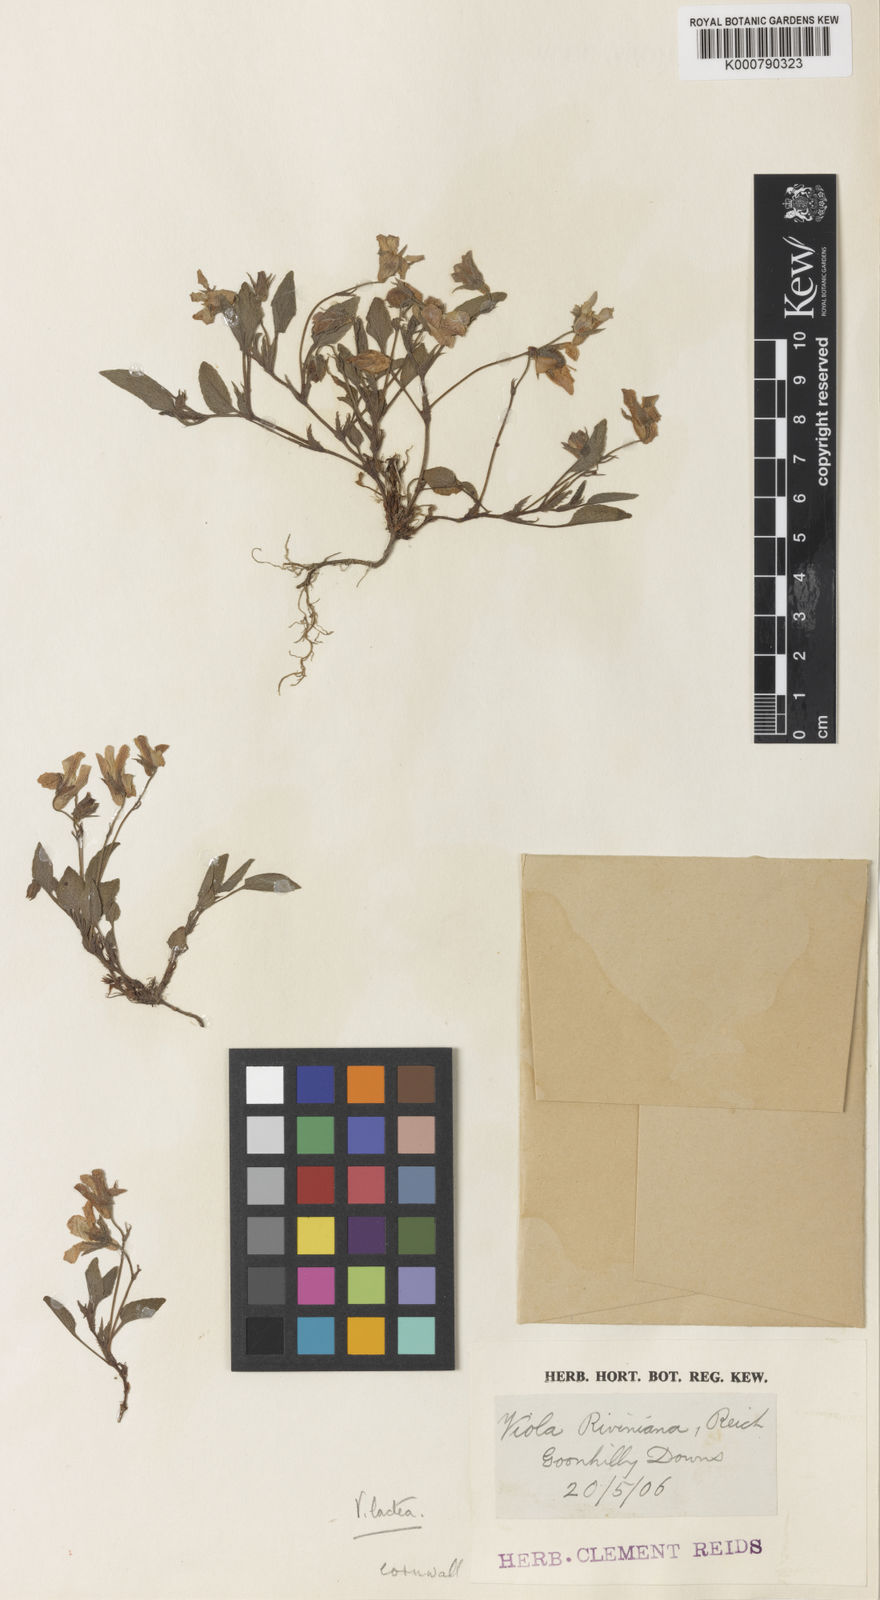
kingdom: Plantae
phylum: Tracheophyta
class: Magnoliopsida
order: Malpighiales
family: Violaceae
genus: Viola
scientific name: Viola lactea
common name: Pale dog-violet
